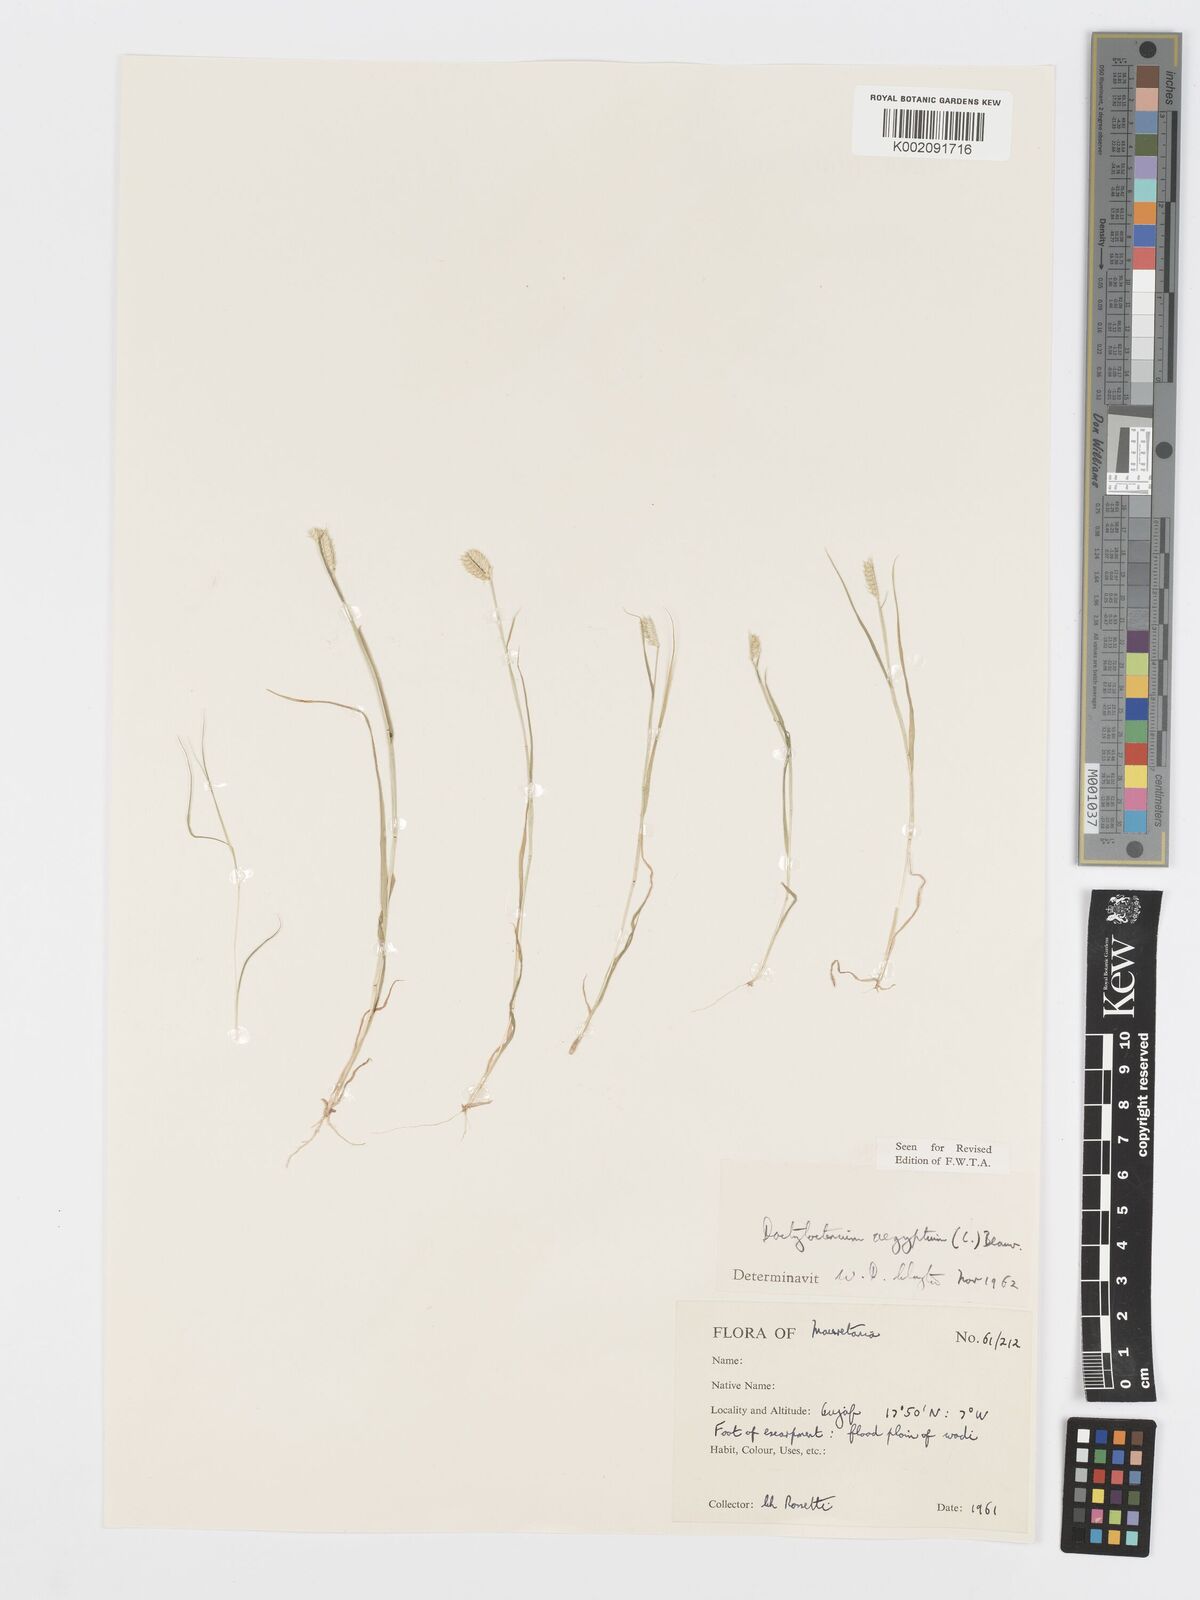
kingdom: Plantae
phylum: Tracheophyta
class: Liliopsida
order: Poales
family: Poaceae
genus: Dactyloctenium
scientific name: Dactyloctenium aegyptium
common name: Egyptian grass
